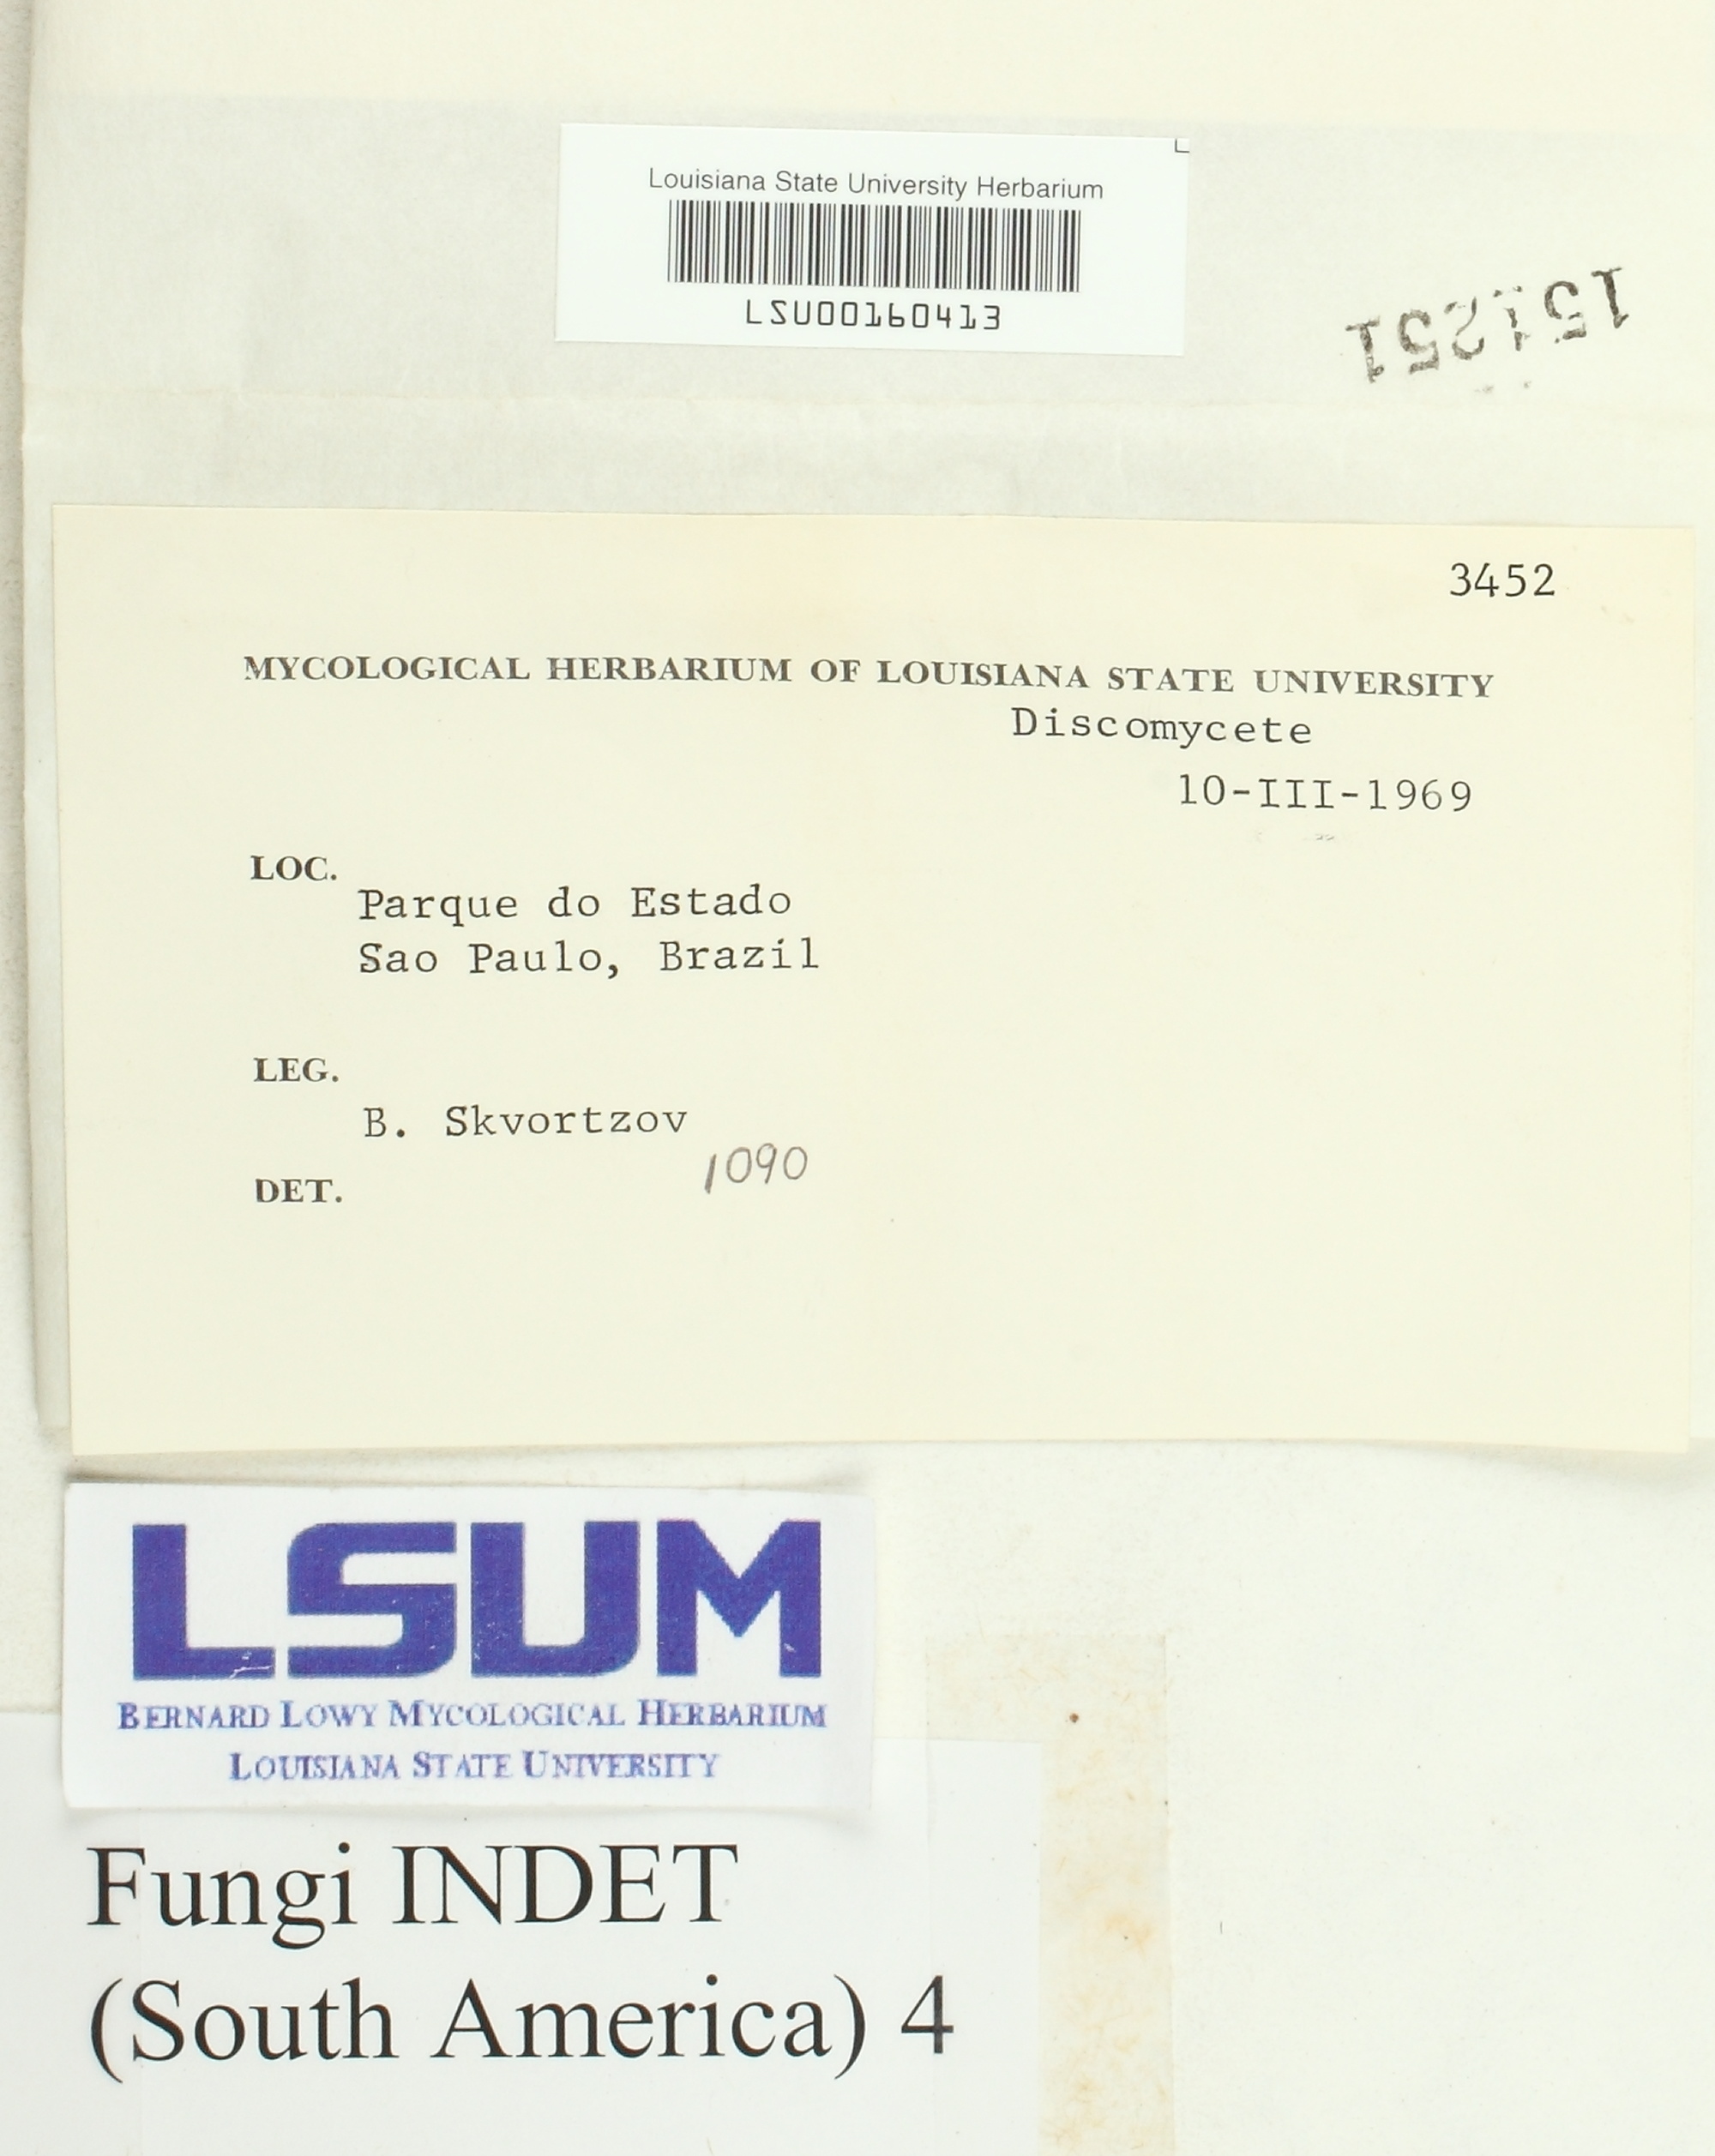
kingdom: Fungi
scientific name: Fungi
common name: Fungi
